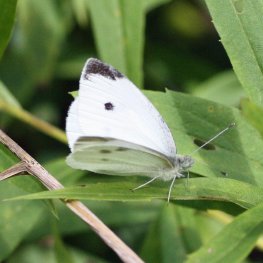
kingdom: Animalia
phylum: Arthropoda
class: Insecta
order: Lepidoptera
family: Pieridae
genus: Pieris
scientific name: Pieris rapae
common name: Cabbage White
